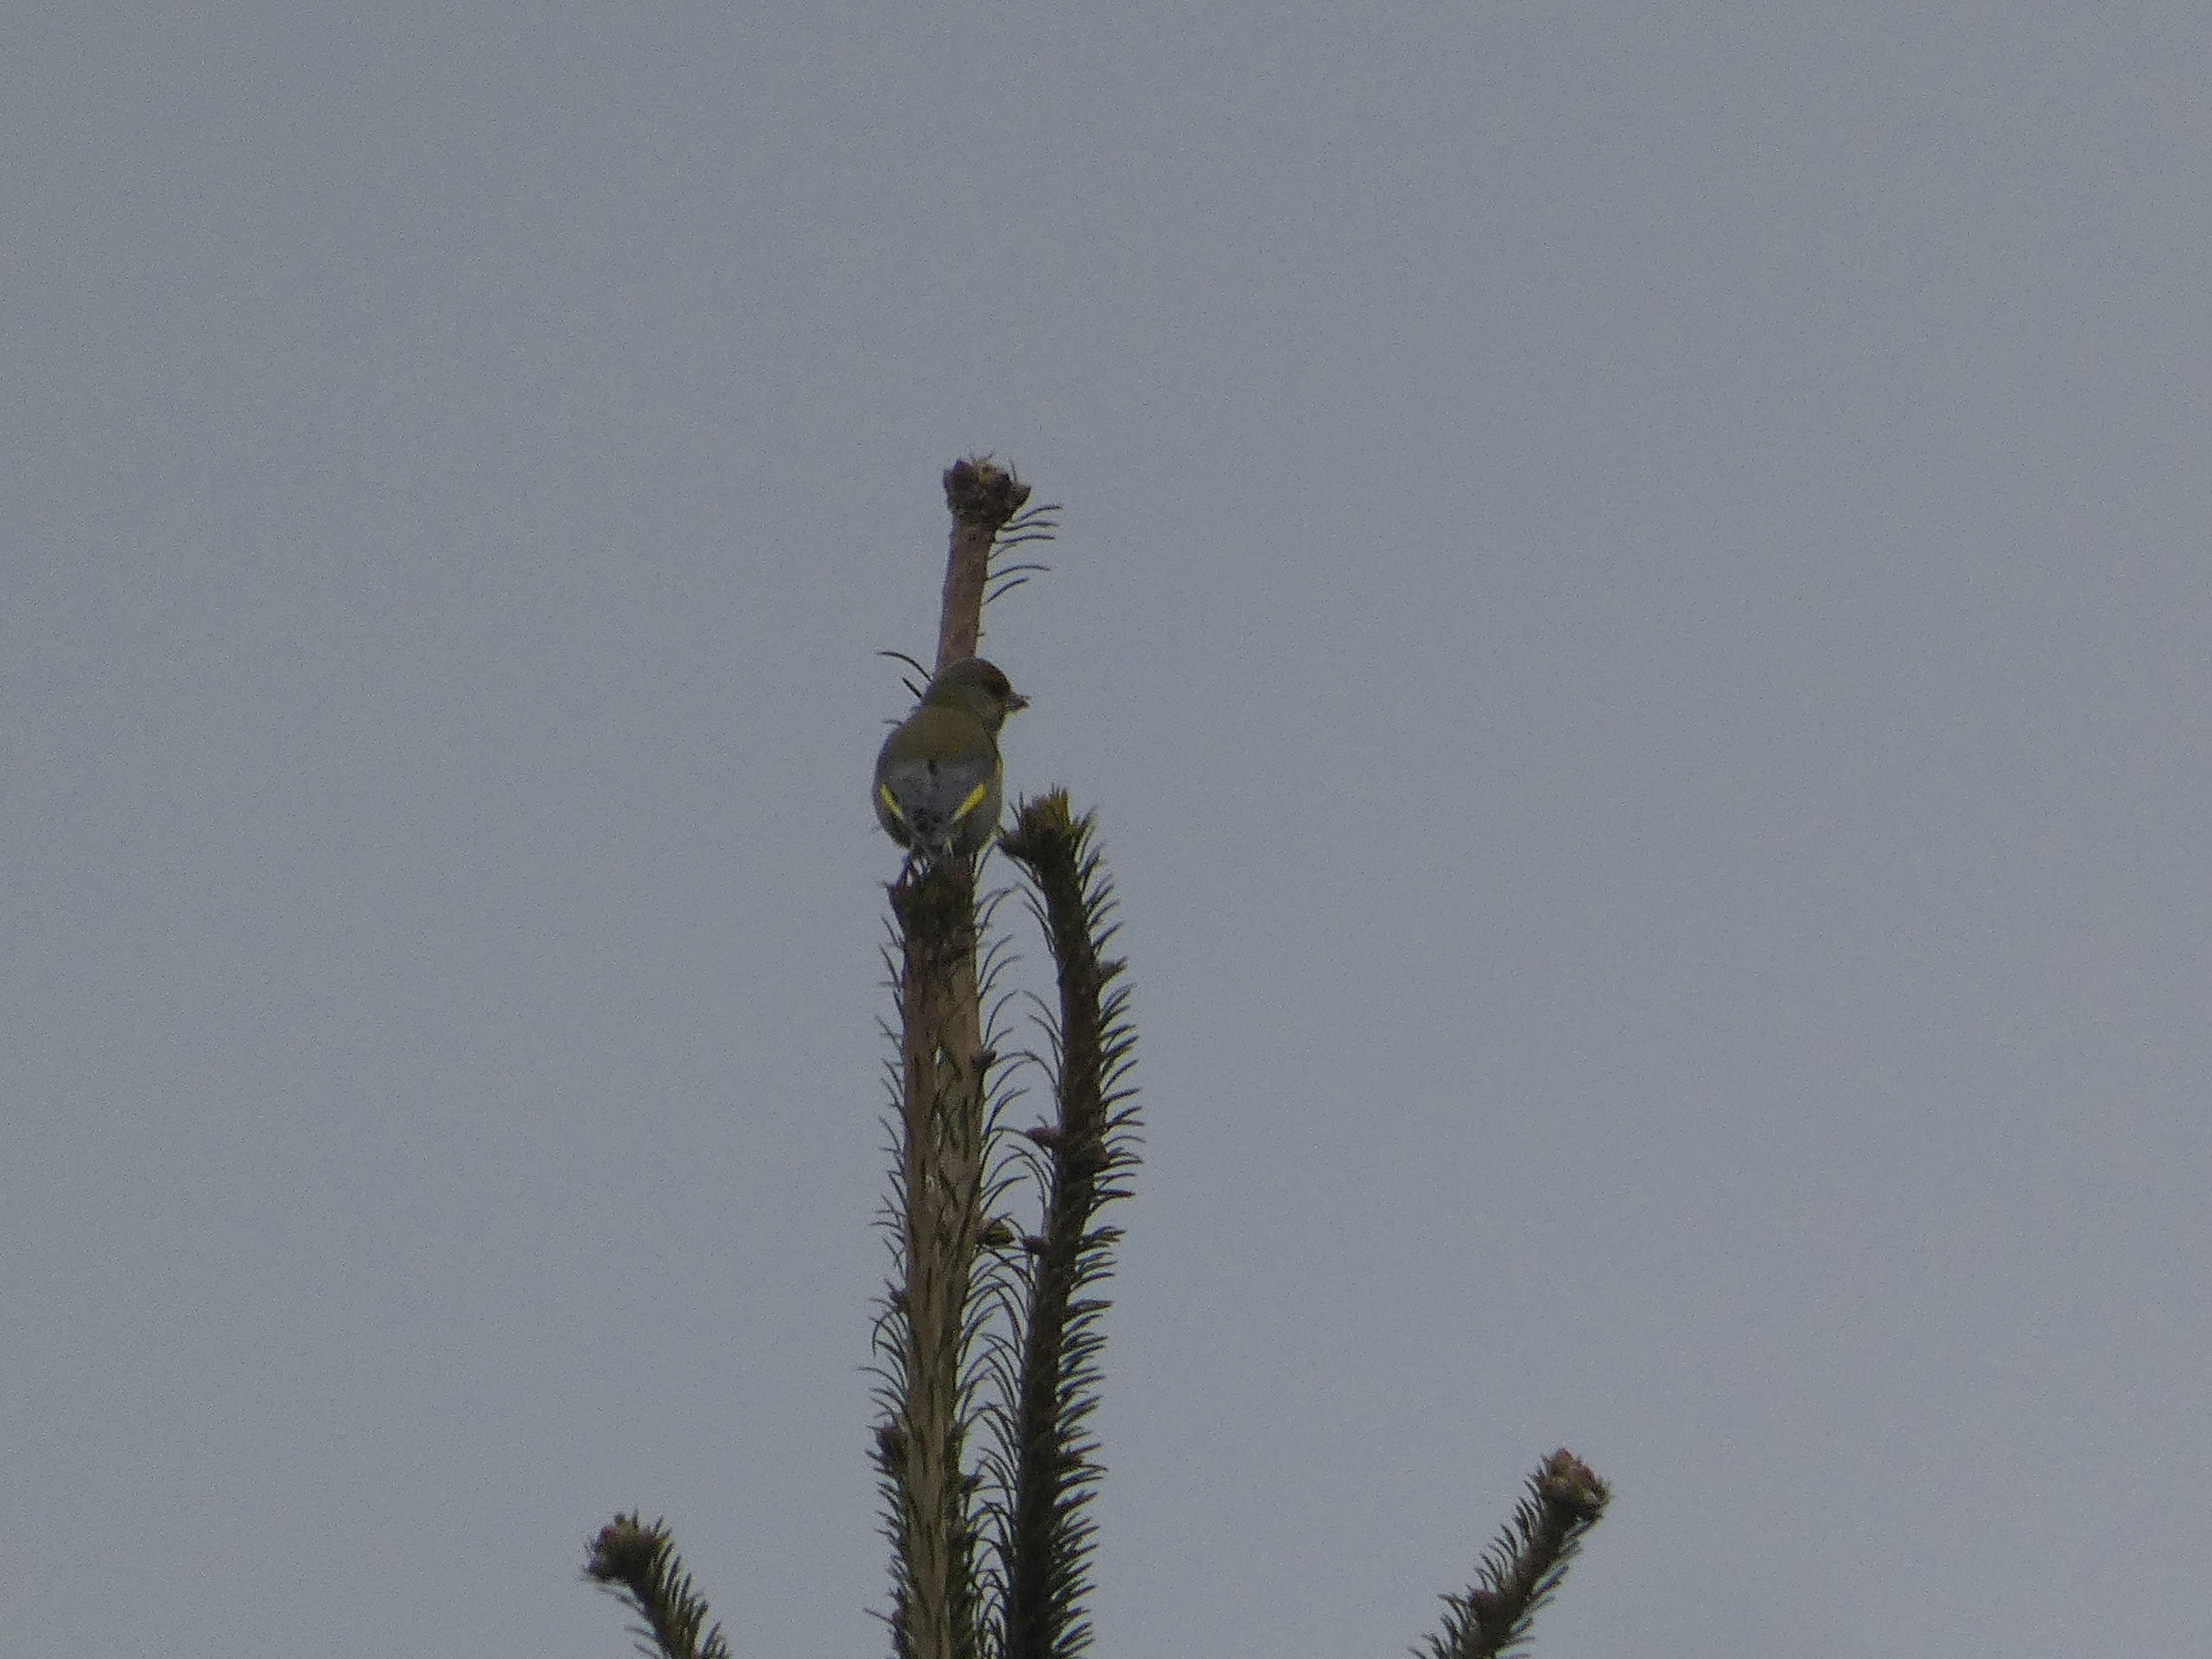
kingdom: Plantae
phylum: Tracheophyta
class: Liliopsida
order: Poales
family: Poaceae
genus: Chloris
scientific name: Chloris chloris
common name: Grønirisk
